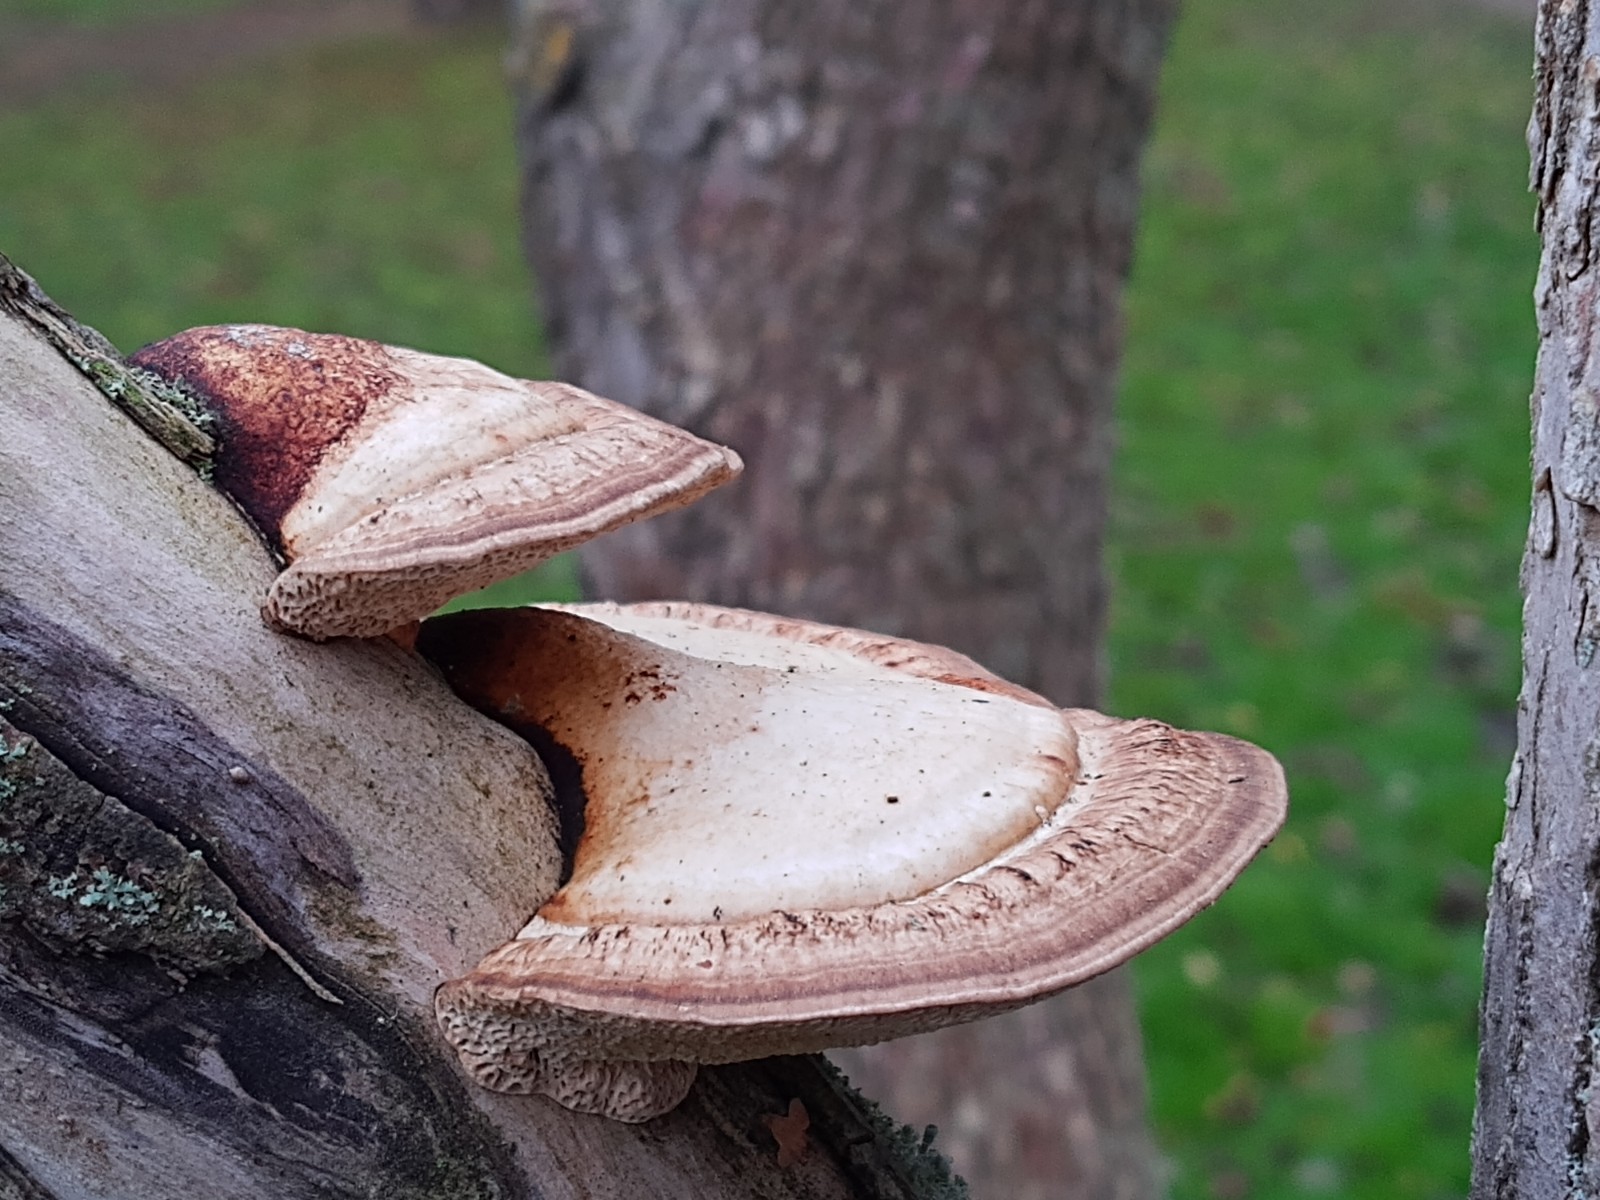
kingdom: Fungi
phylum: Basidiomycota
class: Agaricomycetes
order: Polyporales
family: Polyporaceae
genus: Daedaleopsis
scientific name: Daedaleopsis confragosa
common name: rødmende læderporesvamp
